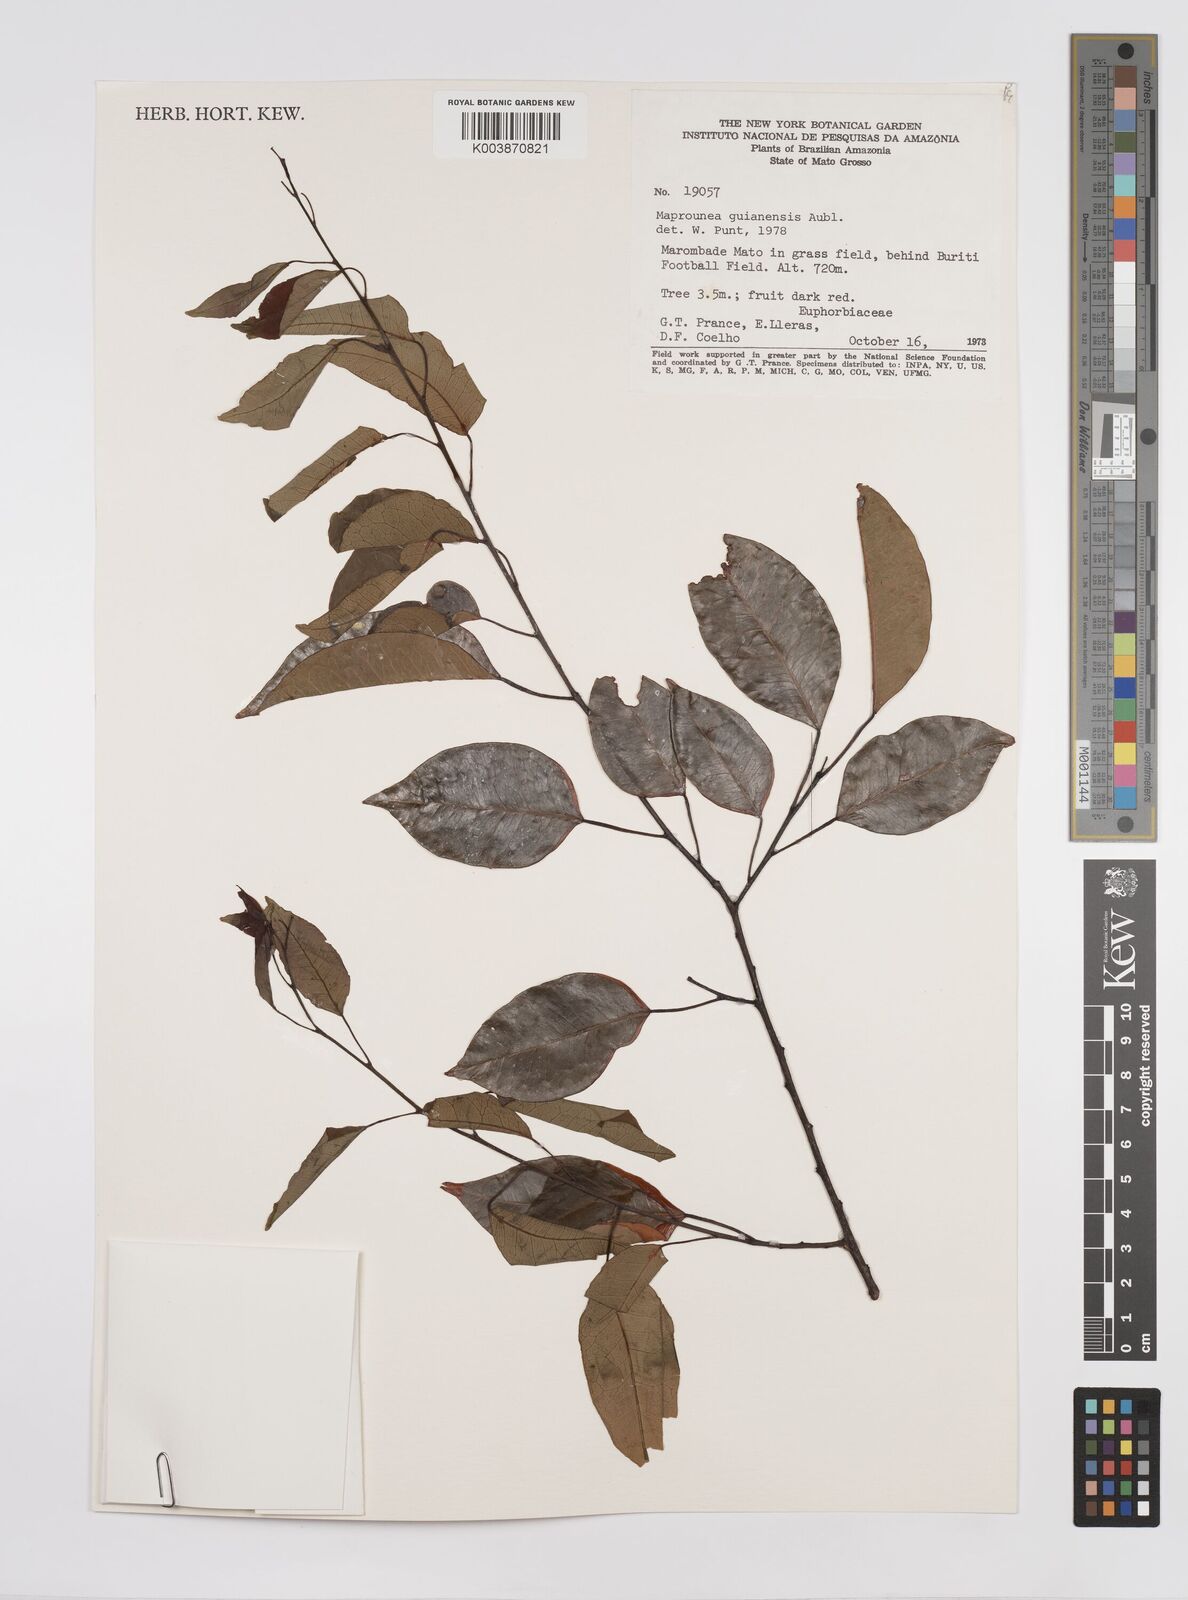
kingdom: Plantae
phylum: Tracheophyta
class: Magnoliopsida
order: Malpighiales
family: Euphorbiaceae
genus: Maprounea
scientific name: Maprounea guianensis
